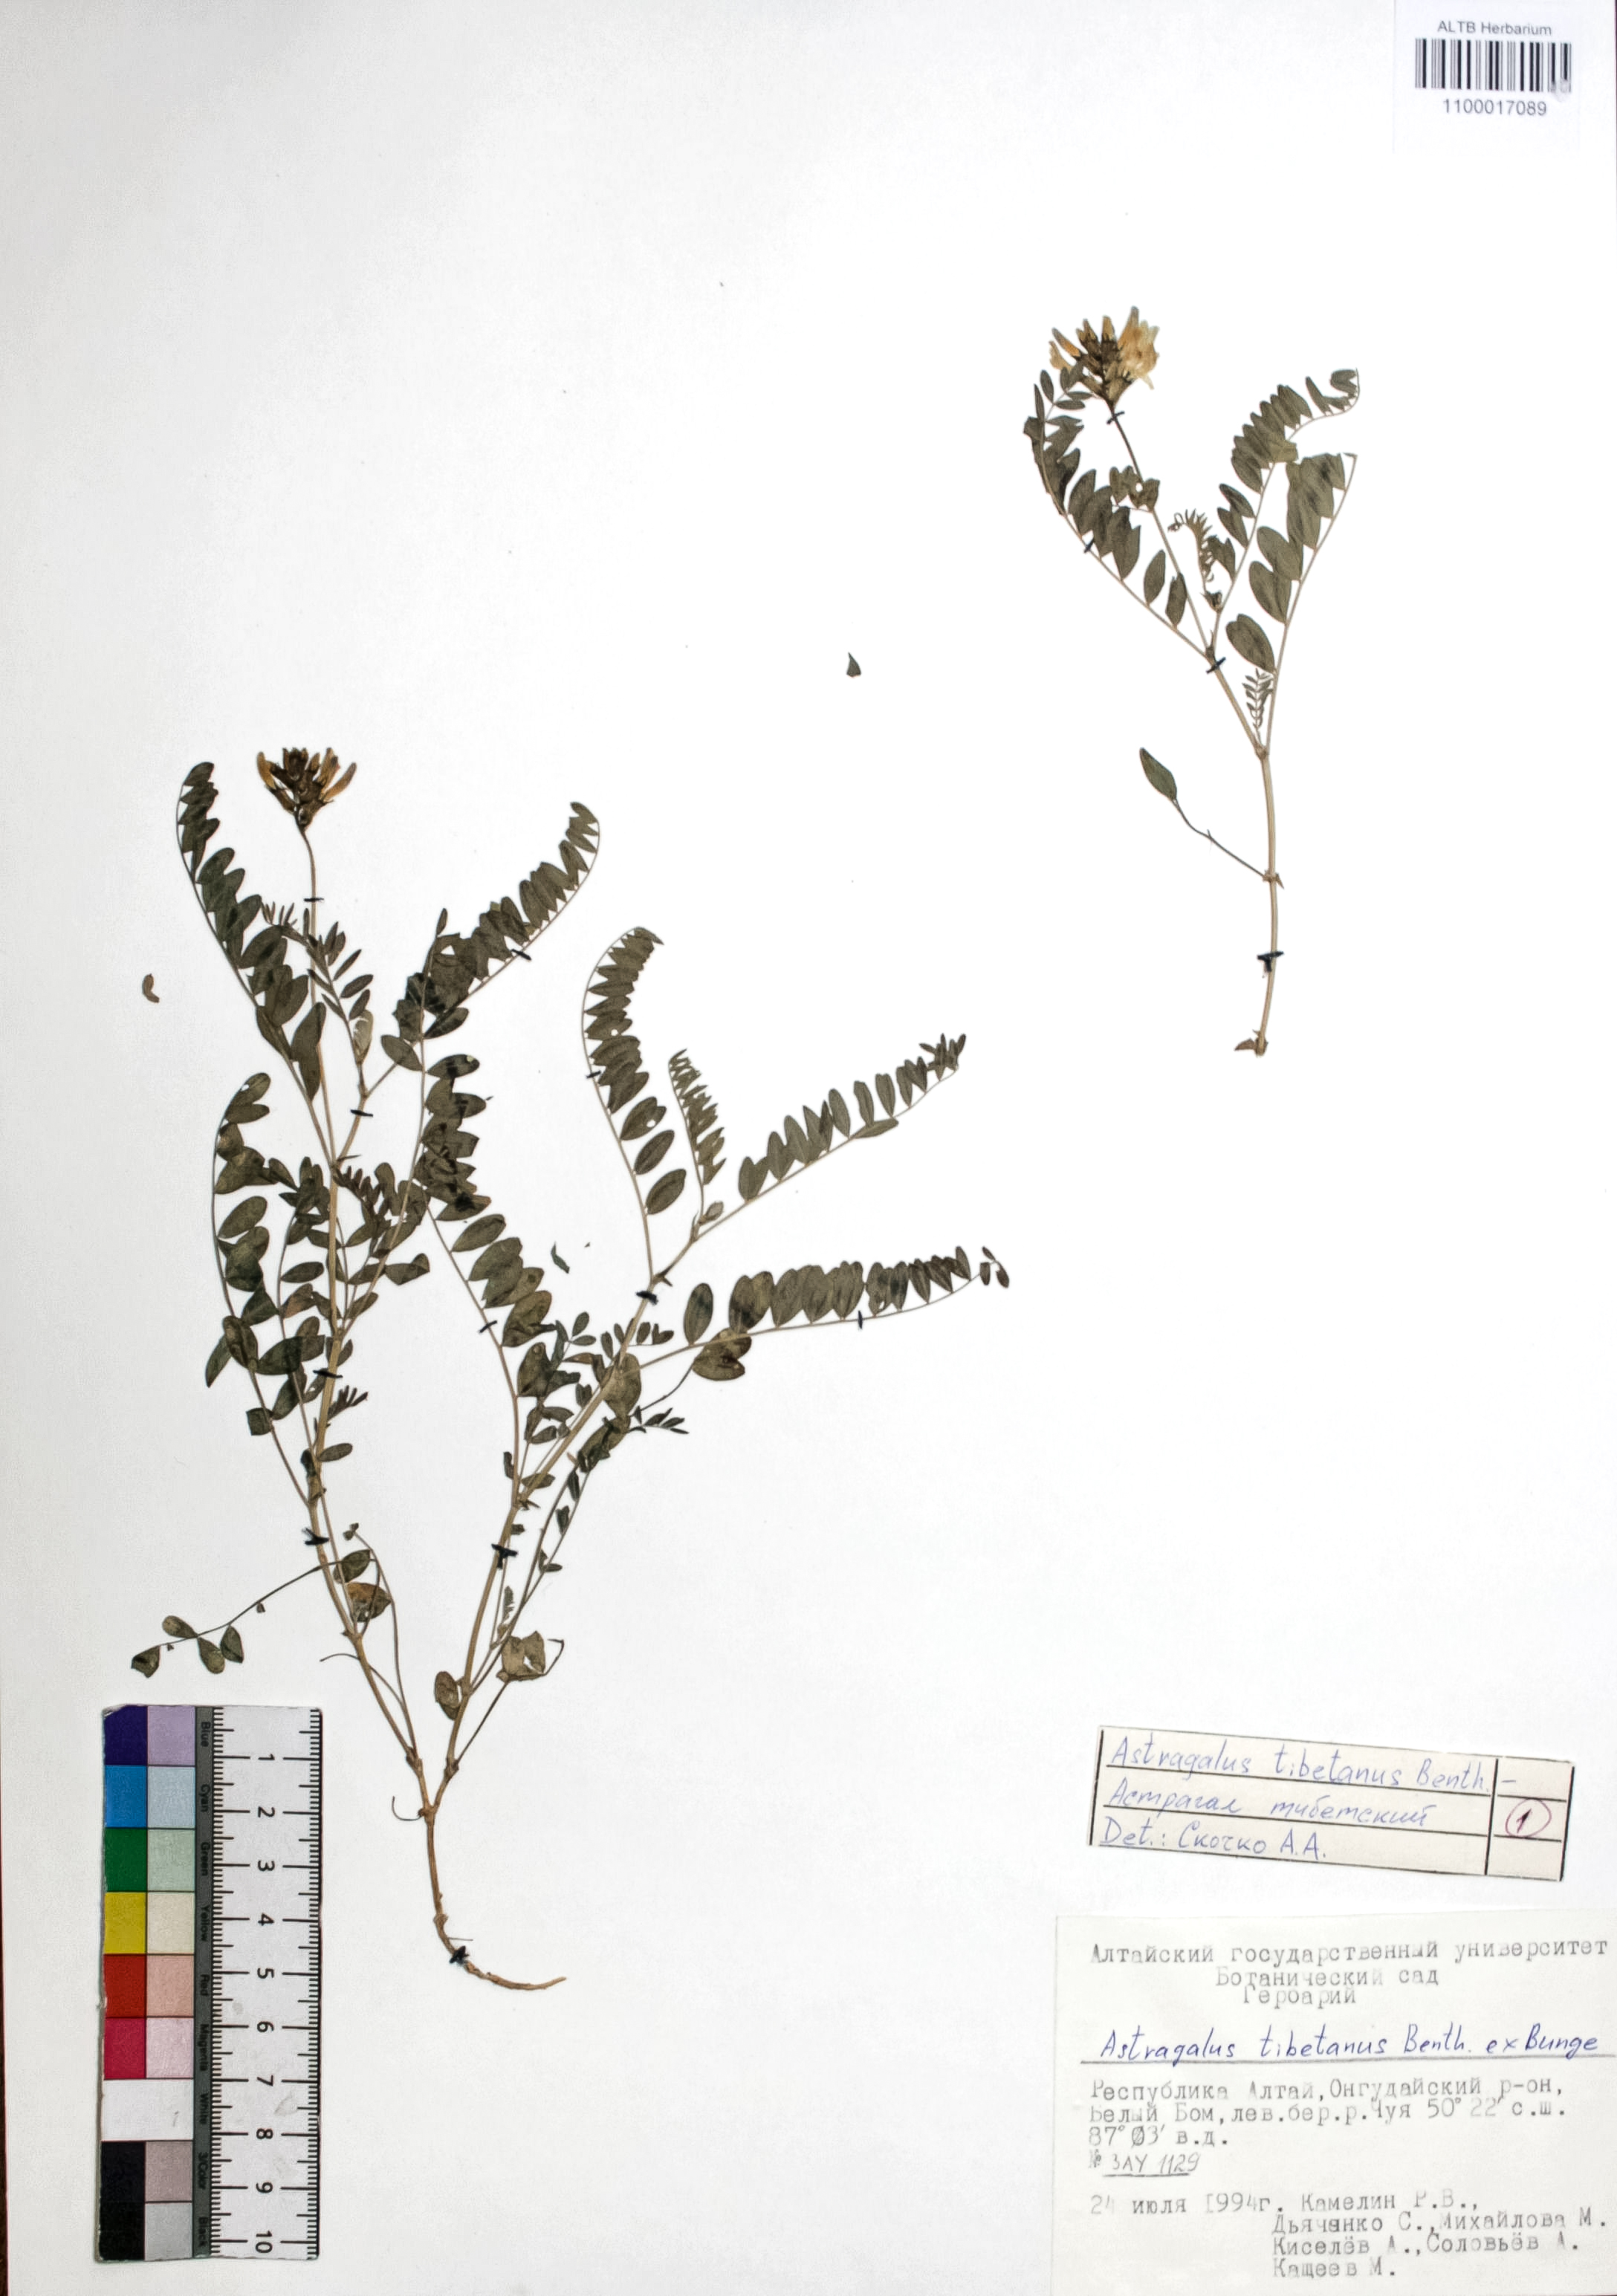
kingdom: Plantae
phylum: Tracheophyta
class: Magnoliopsida
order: Fabales
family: Fabaceae
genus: Astragalus
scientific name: Astragalus tibetanus
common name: Tibet milkvetch
